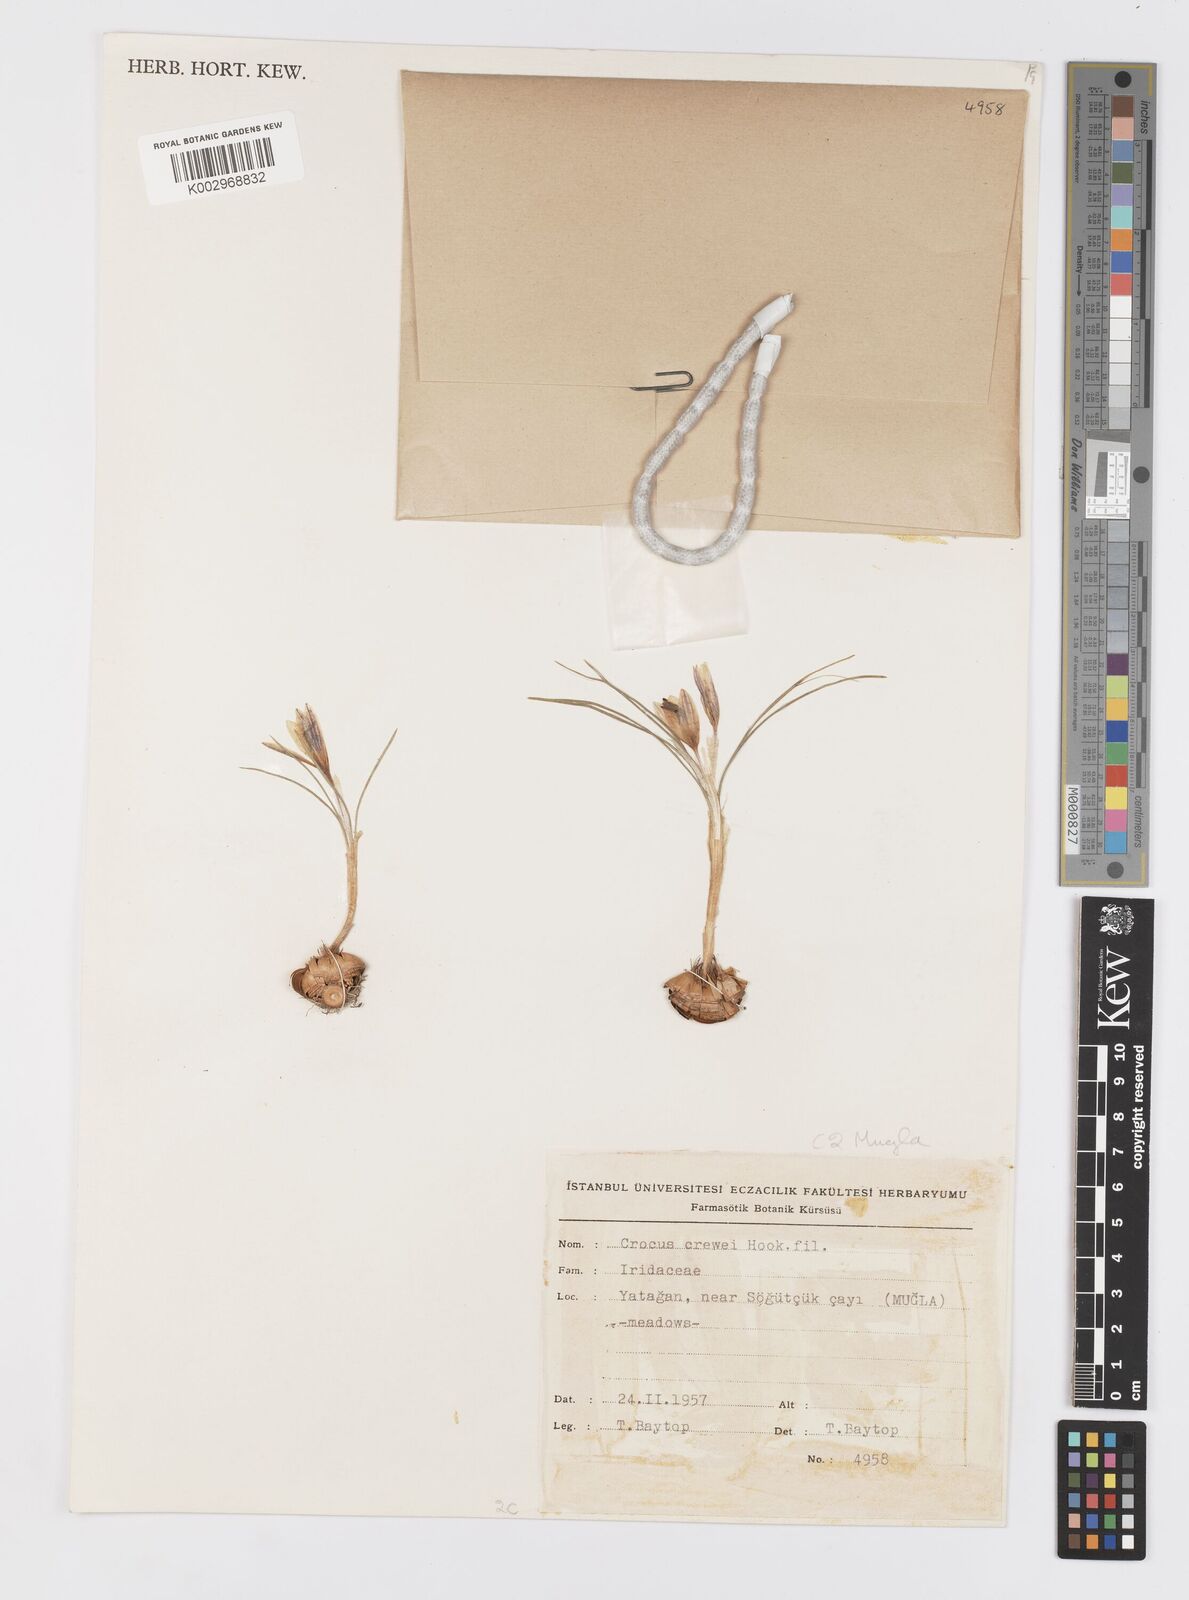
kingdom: Plantae
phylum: Tracheophyta
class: Liliopsida
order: Asparagales
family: Iridaceae
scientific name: Iridaceae
